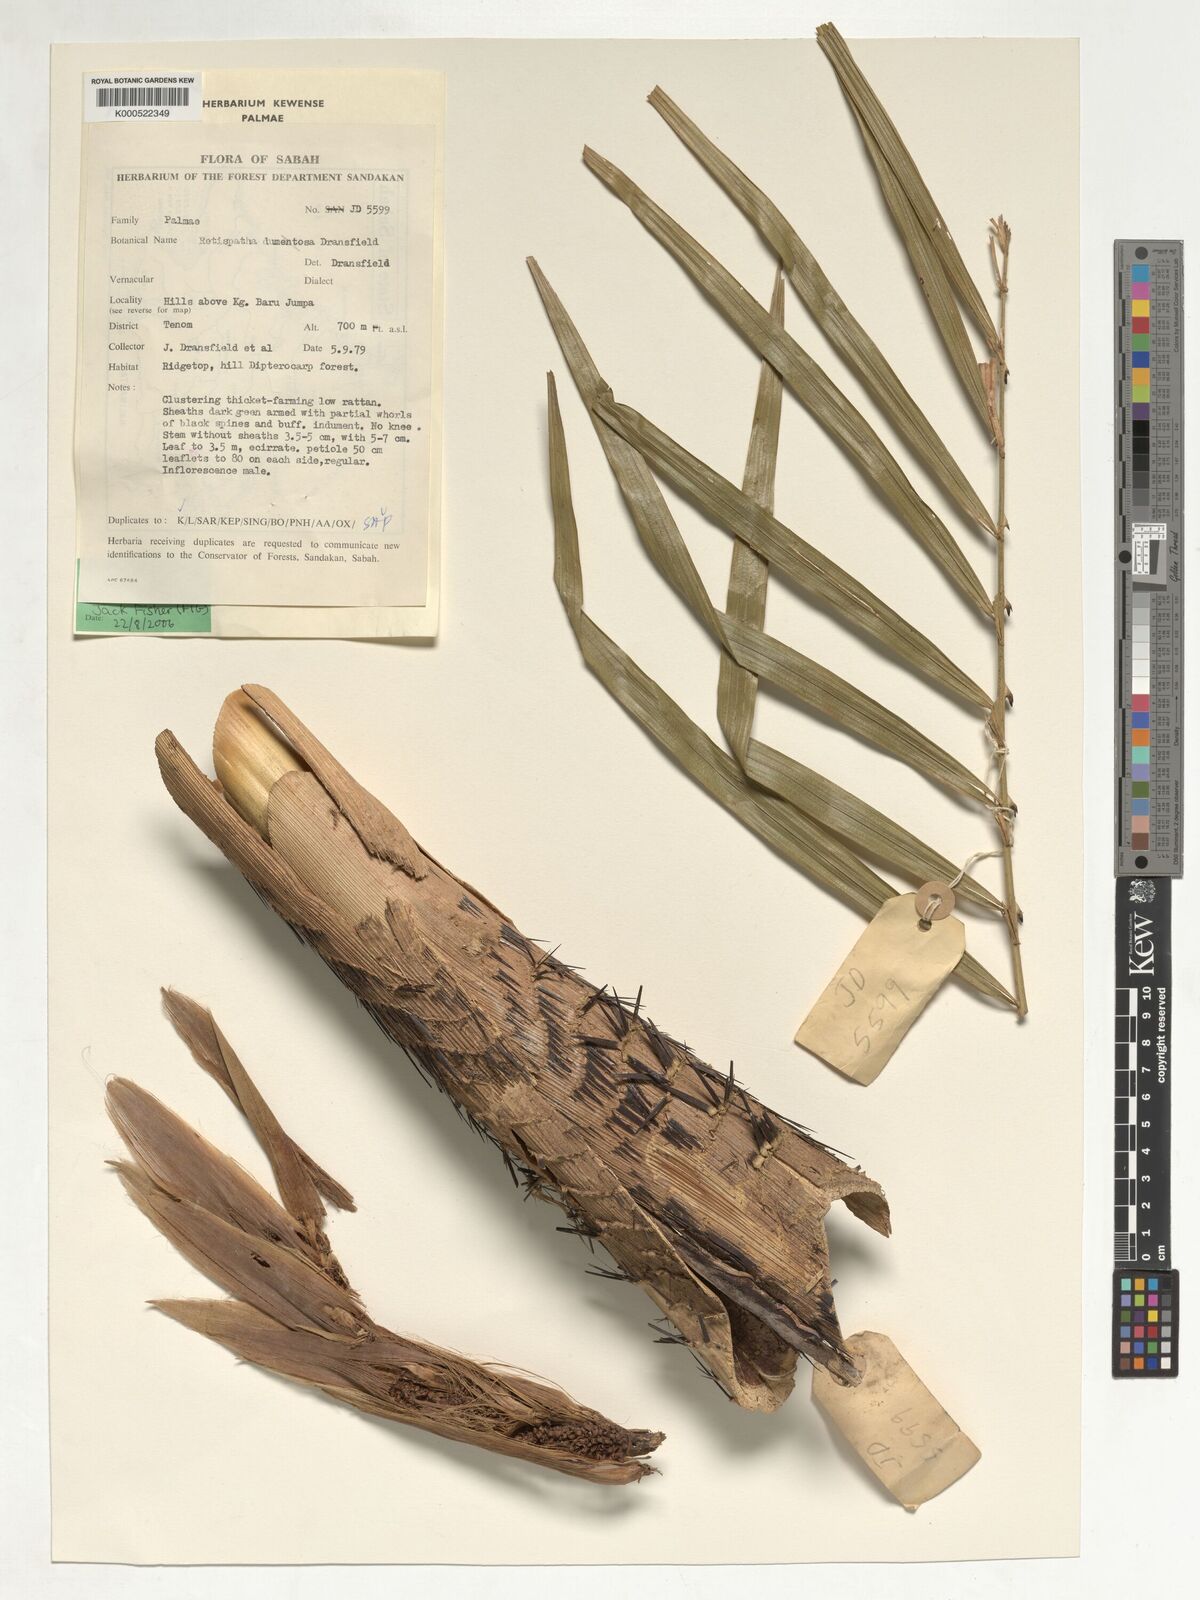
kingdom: Plantae
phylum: Tracheophyta
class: Liliopsida
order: Arecales
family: Arecaceae
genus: Calamus
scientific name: Calamus dumetosus
